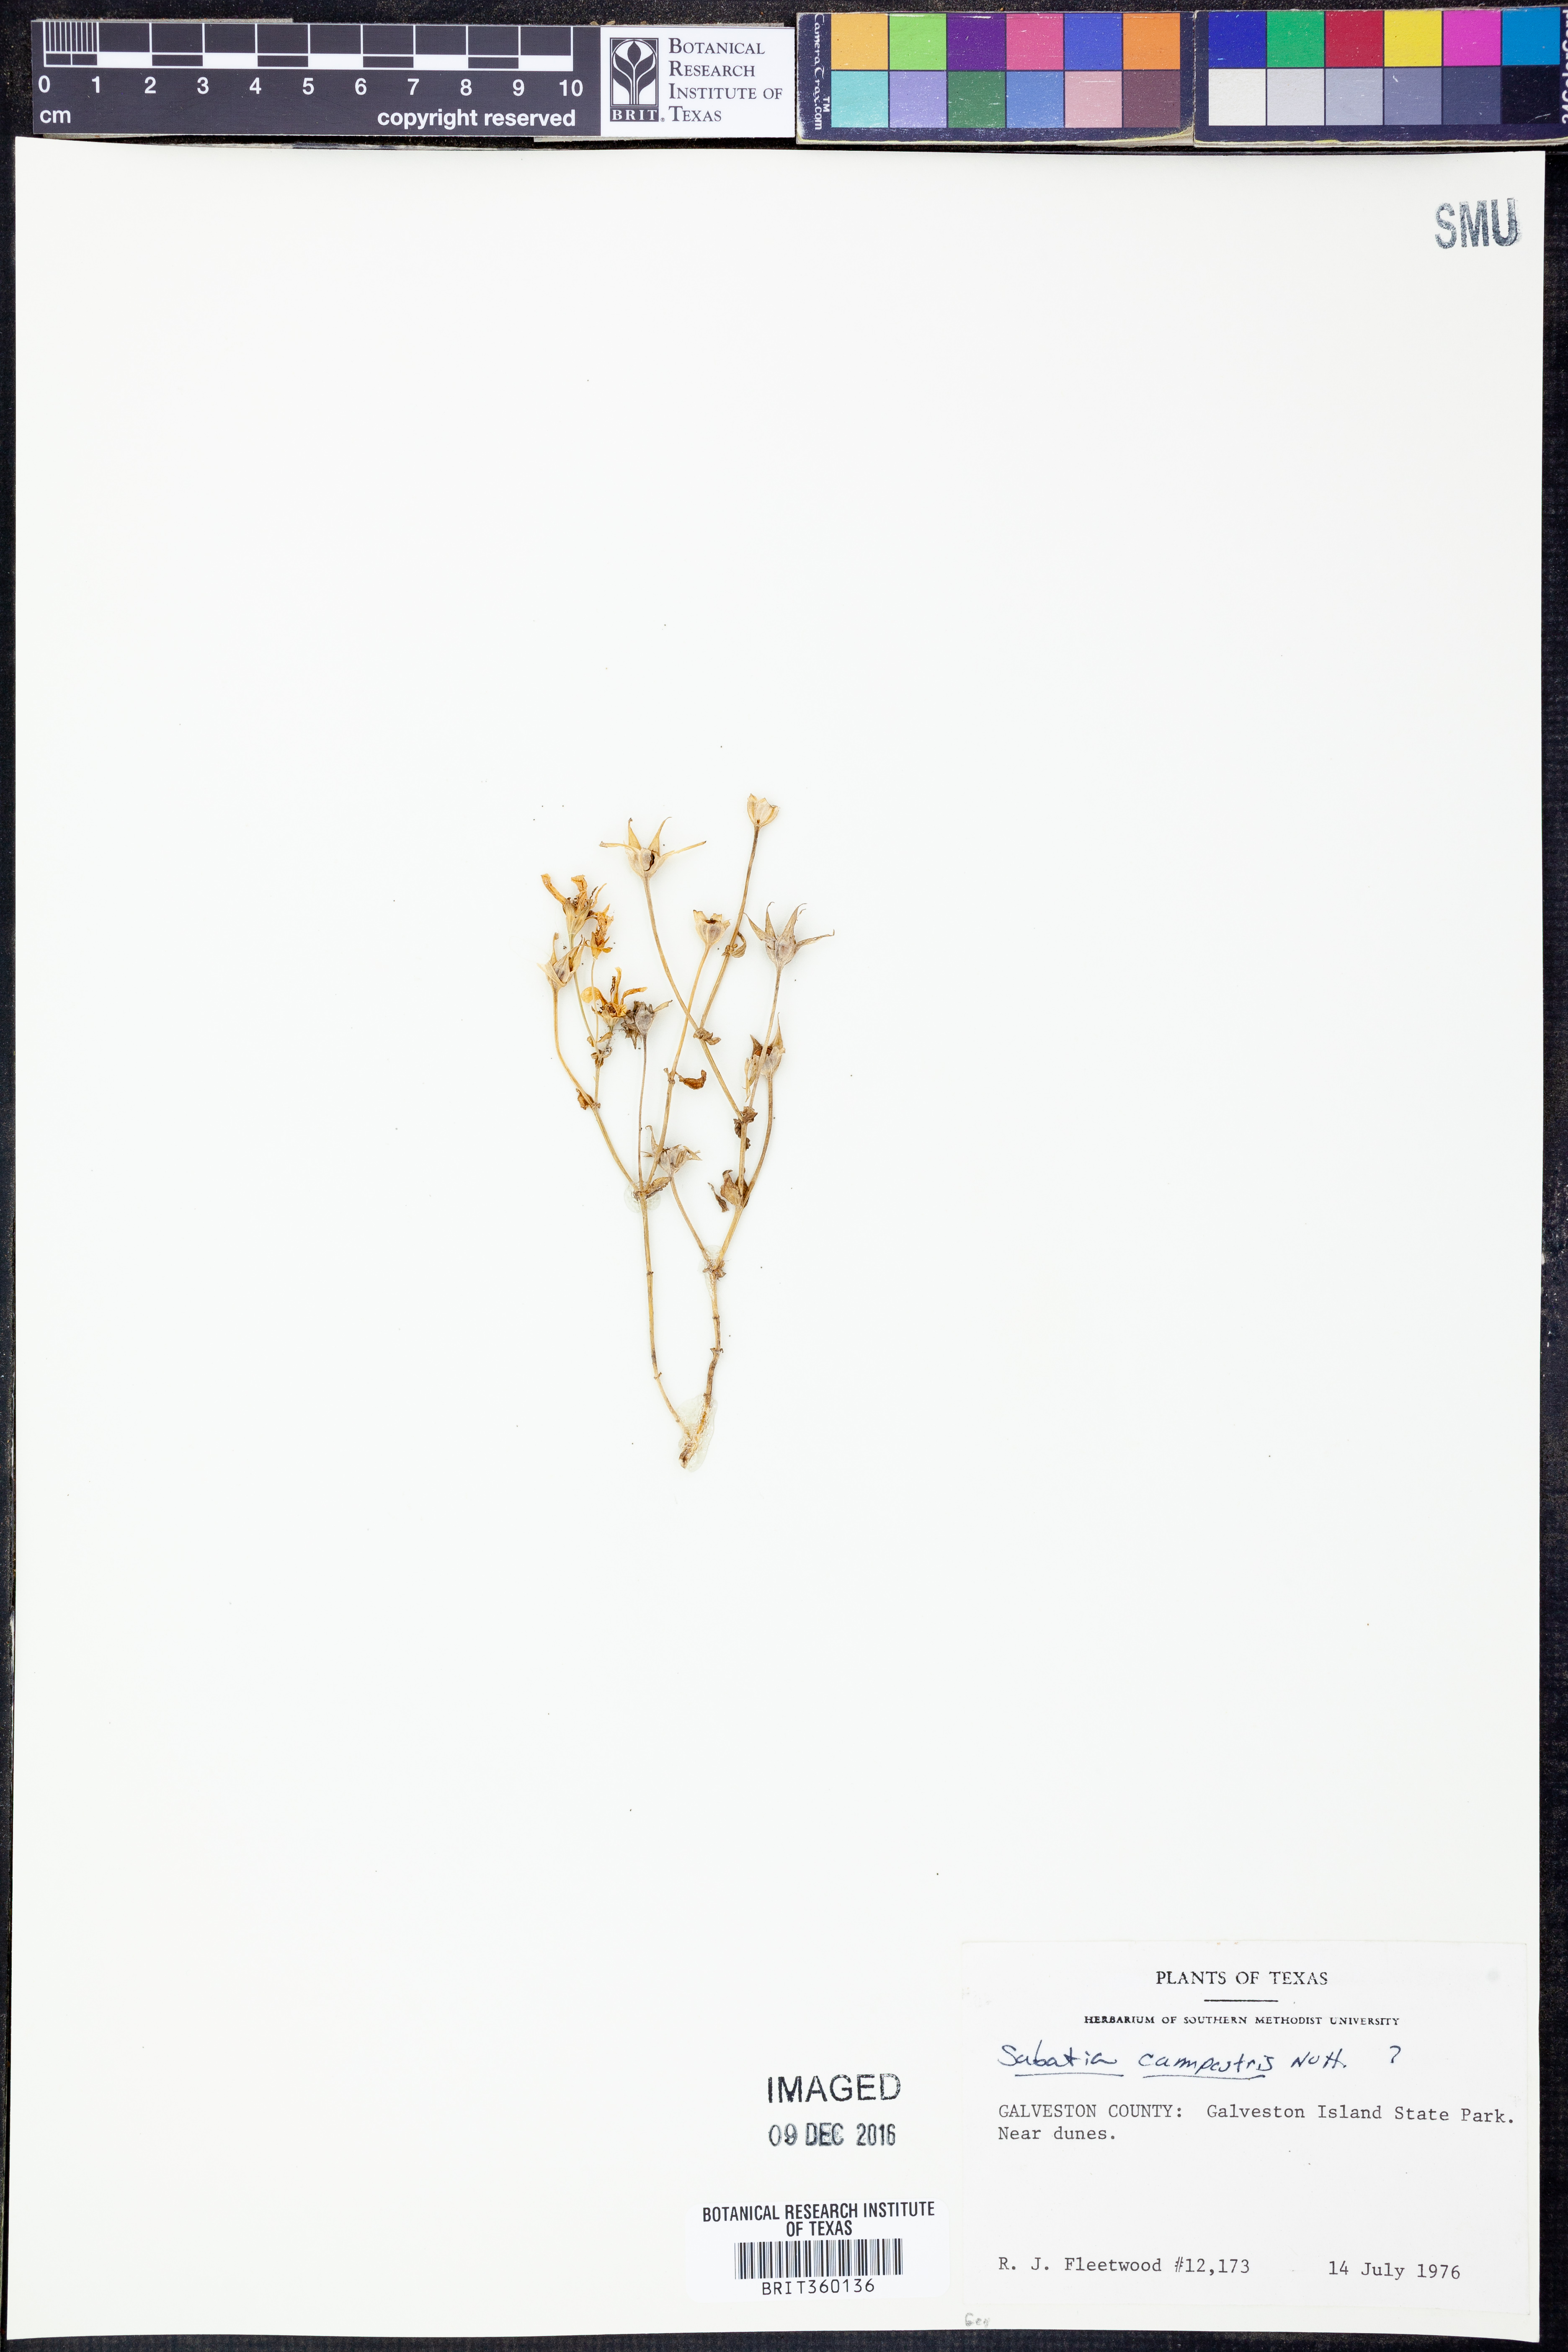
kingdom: Plantae
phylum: Tracheophyta
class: Magnoliopsida
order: Gentianales
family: Gentianaceae
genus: Sabatia
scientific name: Sabatia campestris
